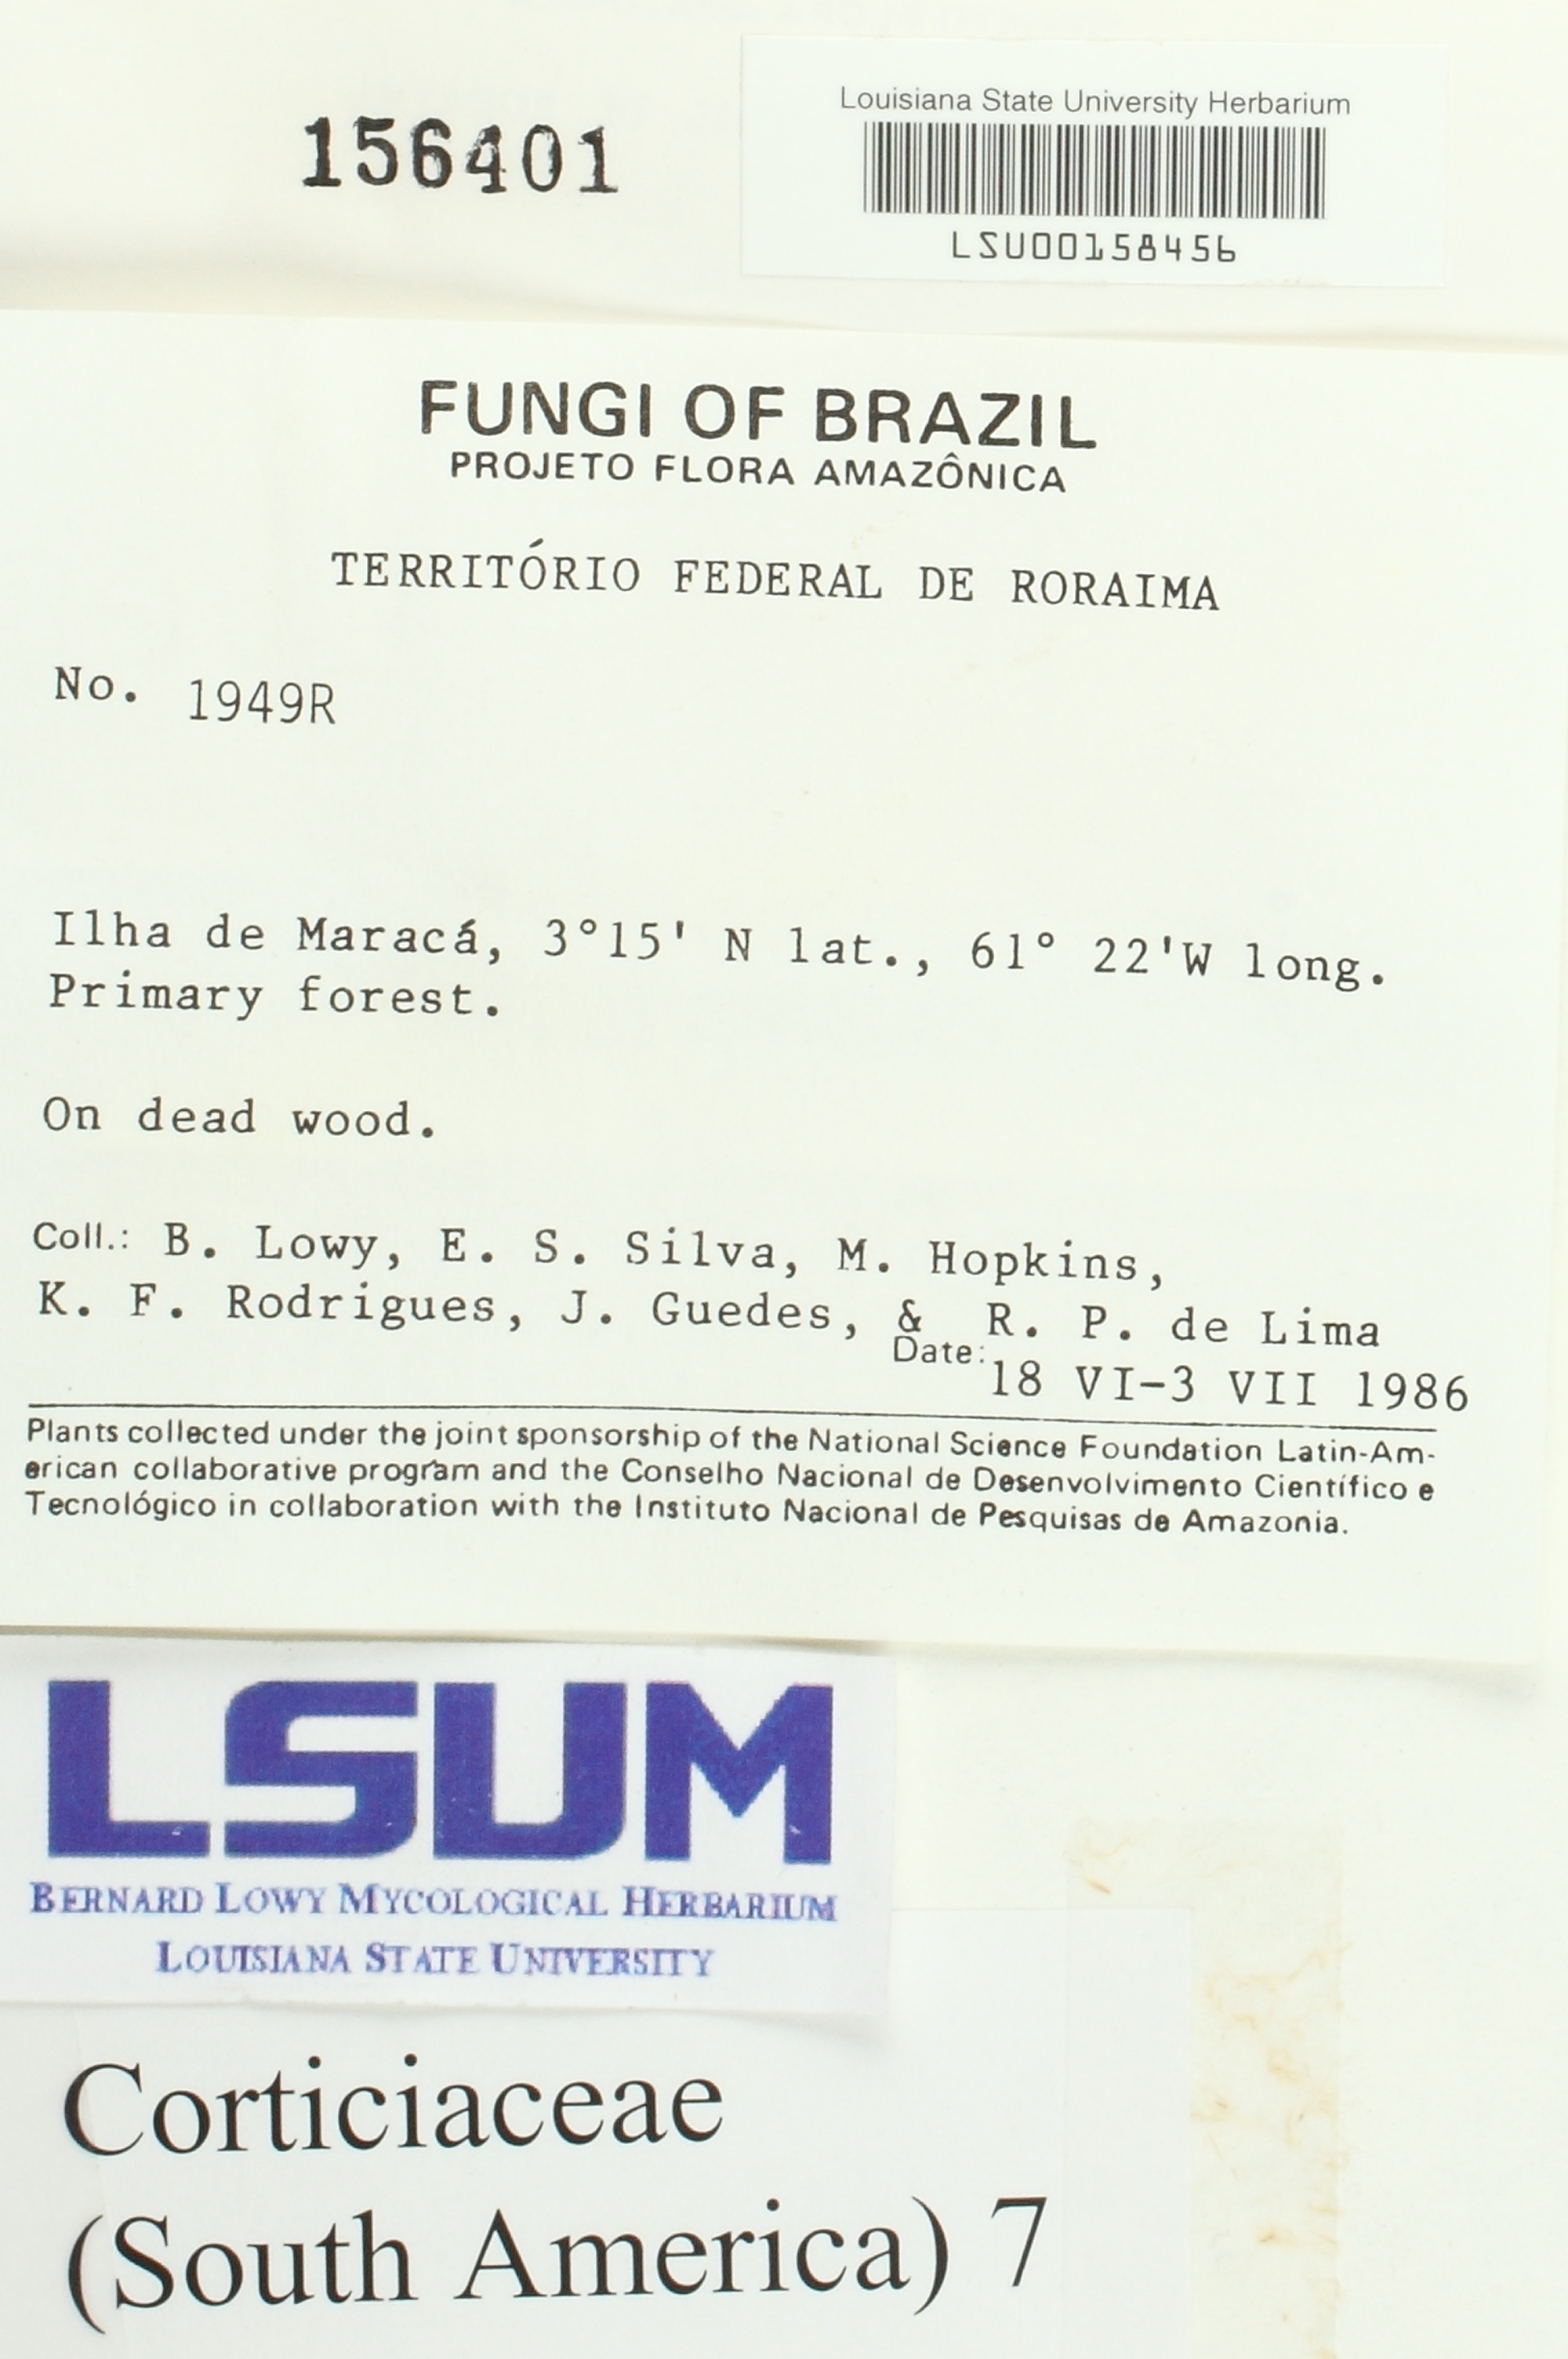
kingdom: Fungi
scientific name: Fungi
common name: Fungi
